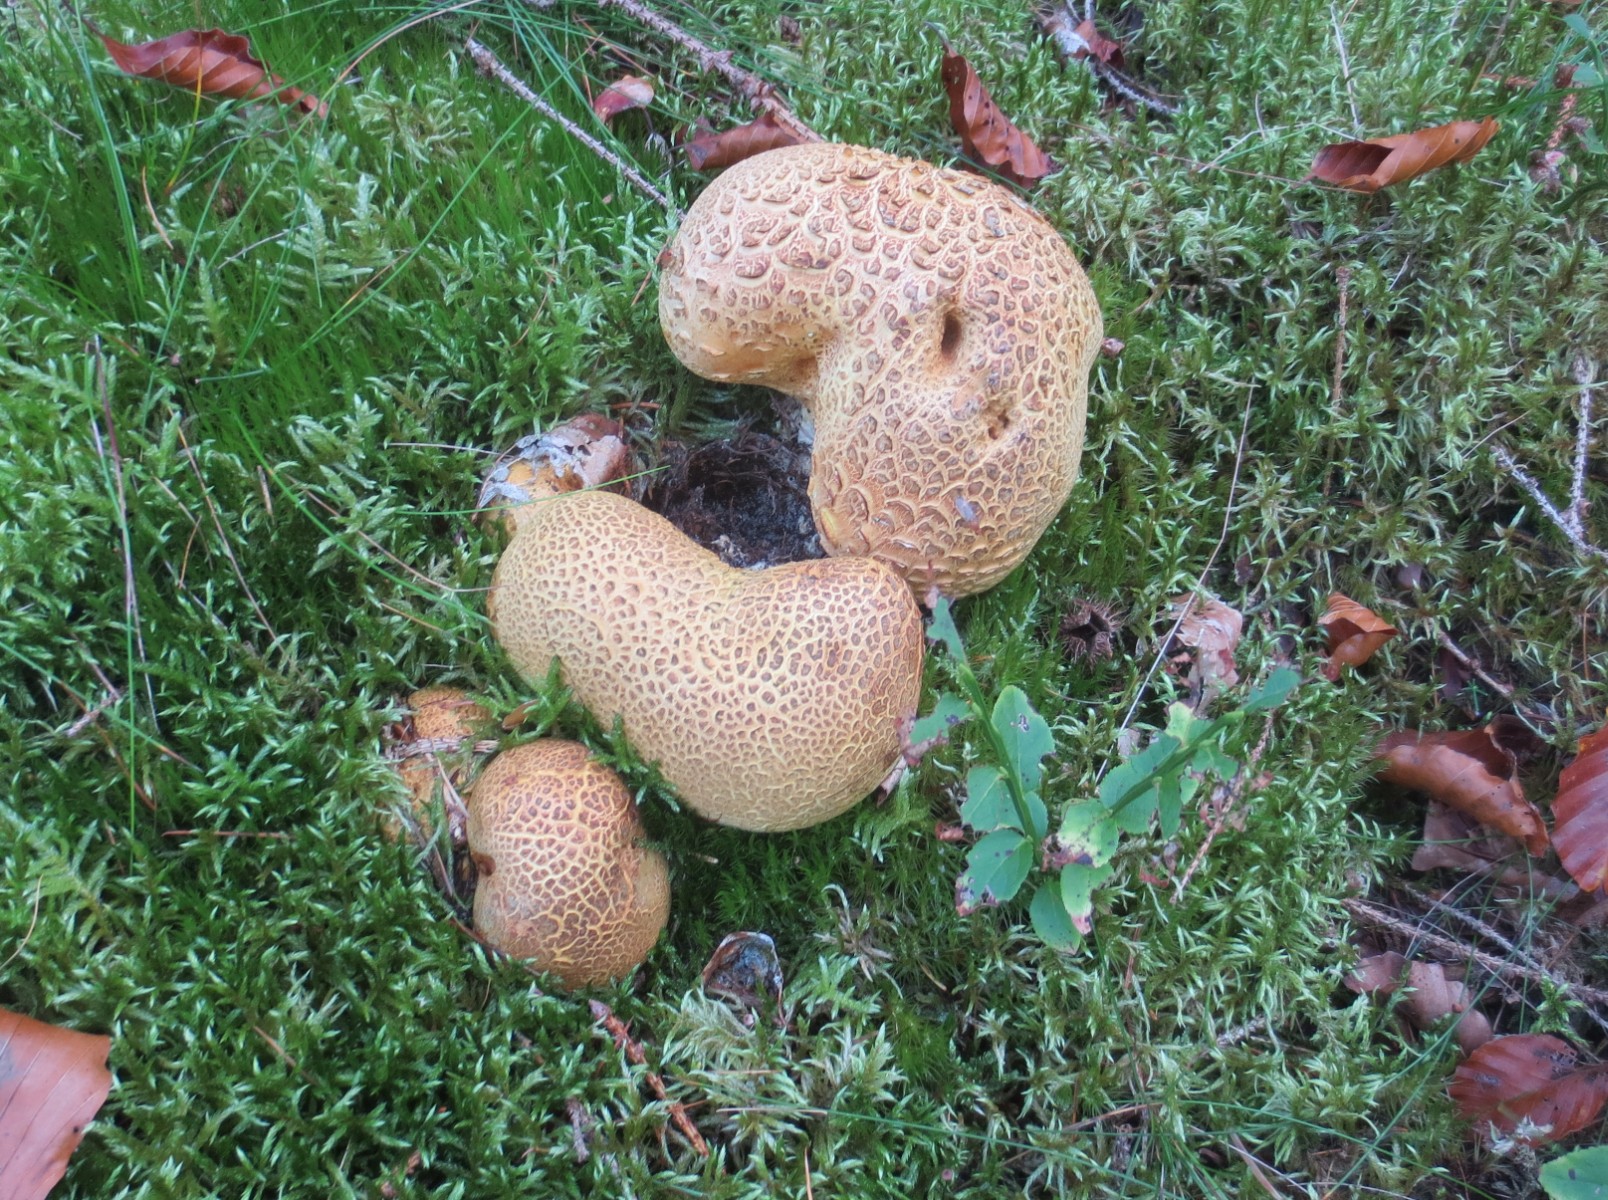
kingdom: Fungi
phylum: Basidiomycota
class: Agaricomycetes
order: Boletales
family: Sclerodermataceae
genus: Scleroderma
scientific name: Scleroderma citrinum
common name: almindelig bruskbold
